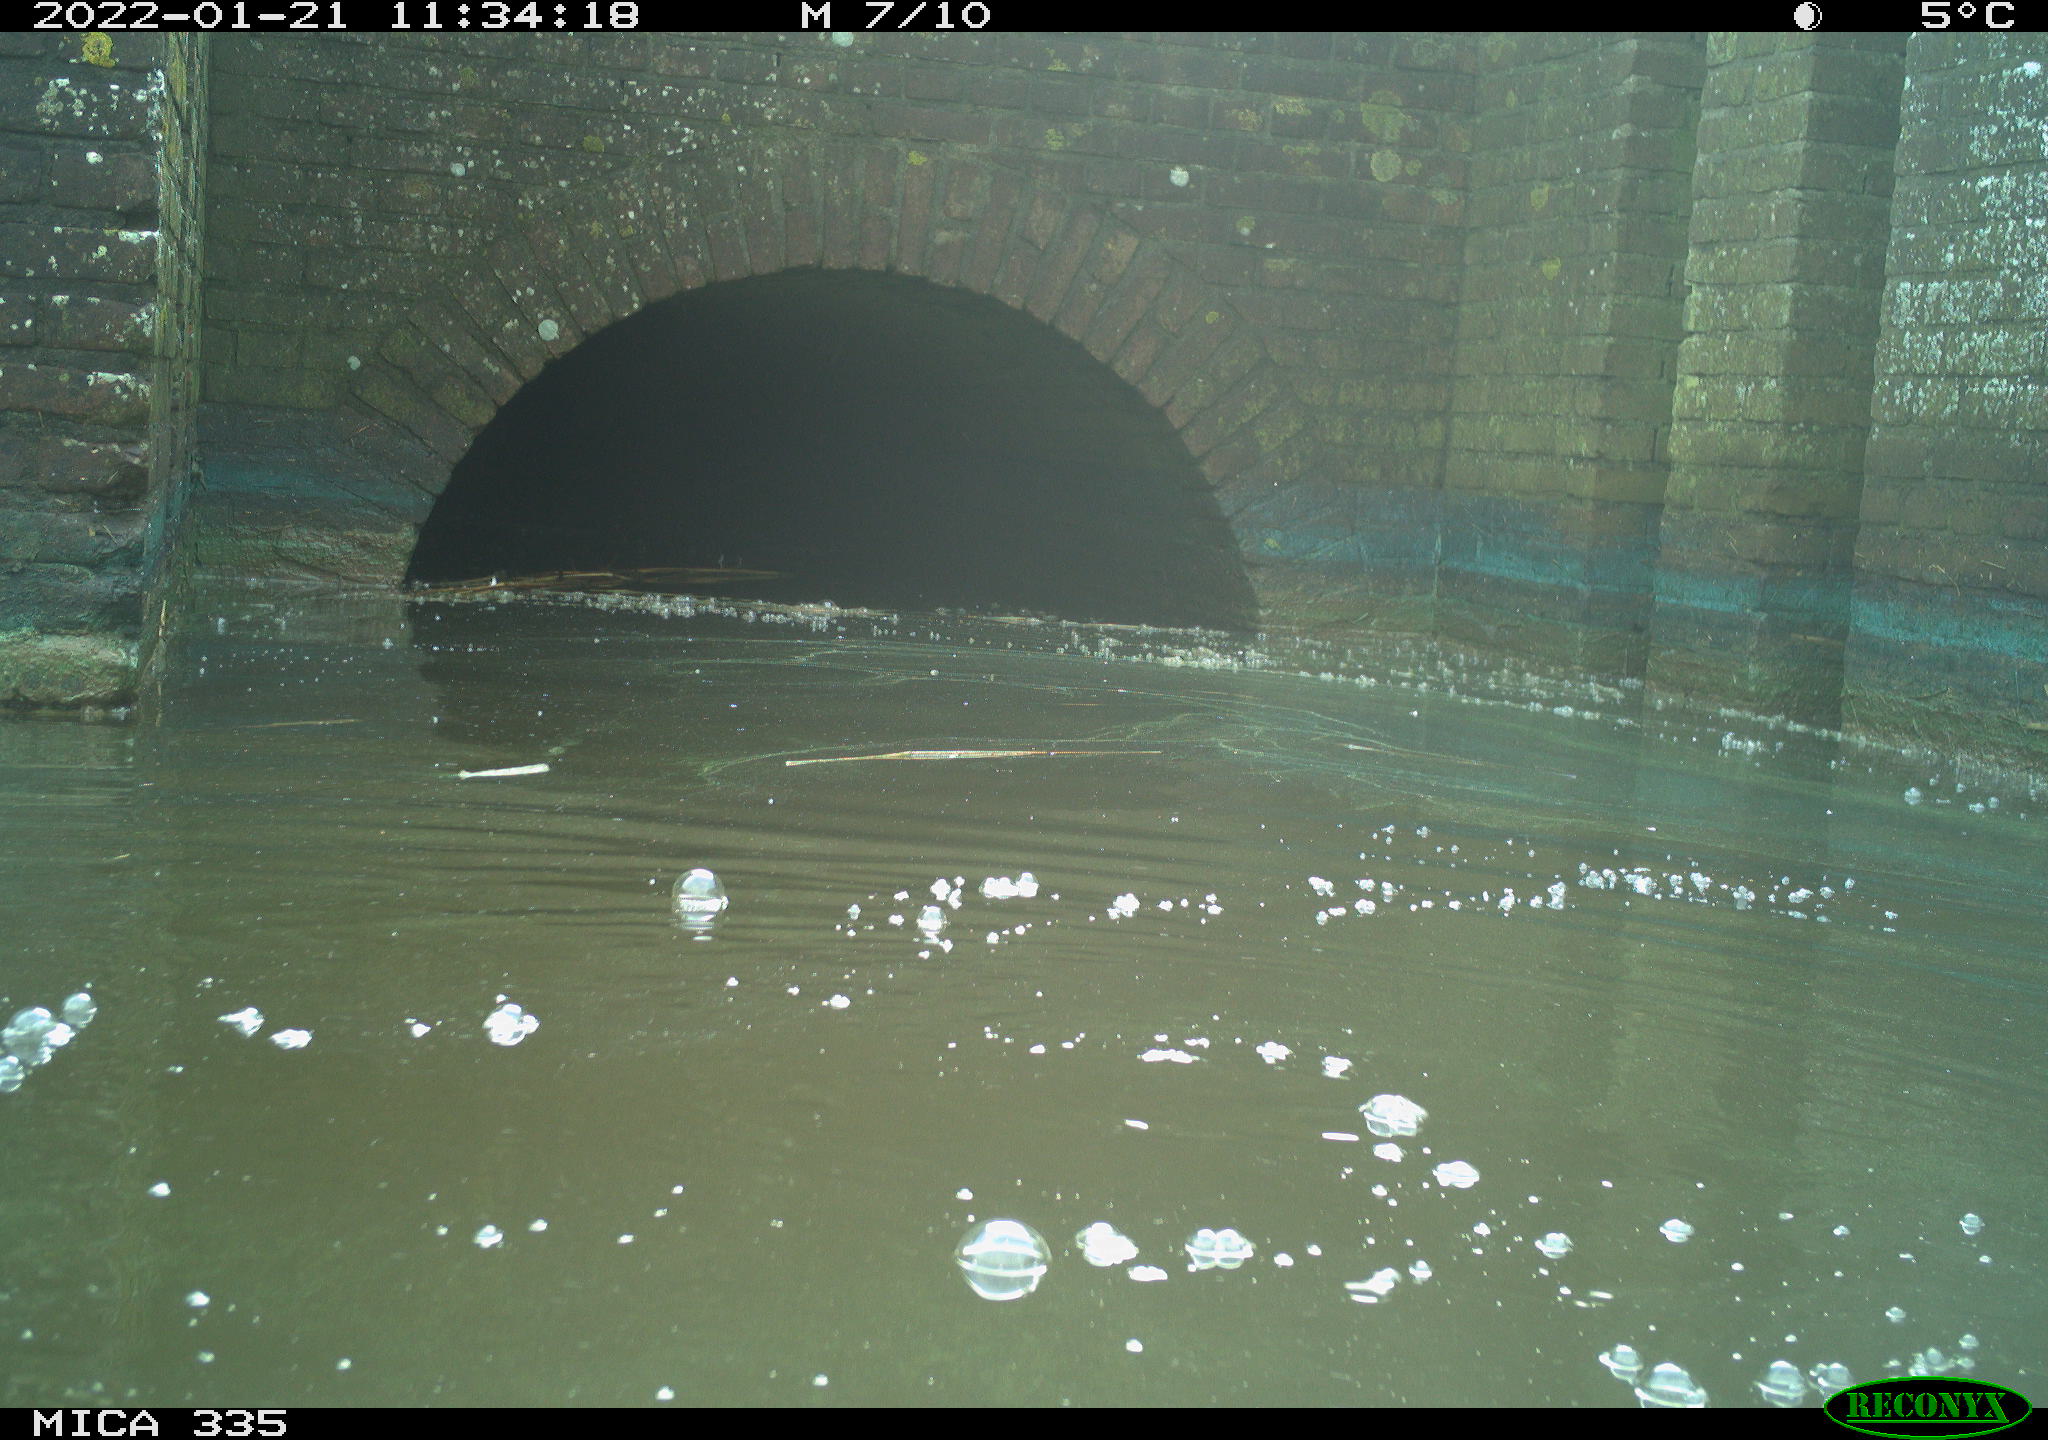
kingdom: Animalia
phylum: Chordata
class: Aves
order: Suliformes
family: Phalacrocoracidae
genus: Phalacrocorax
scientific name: Phalacrocorax carbo
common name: Great cormorant
